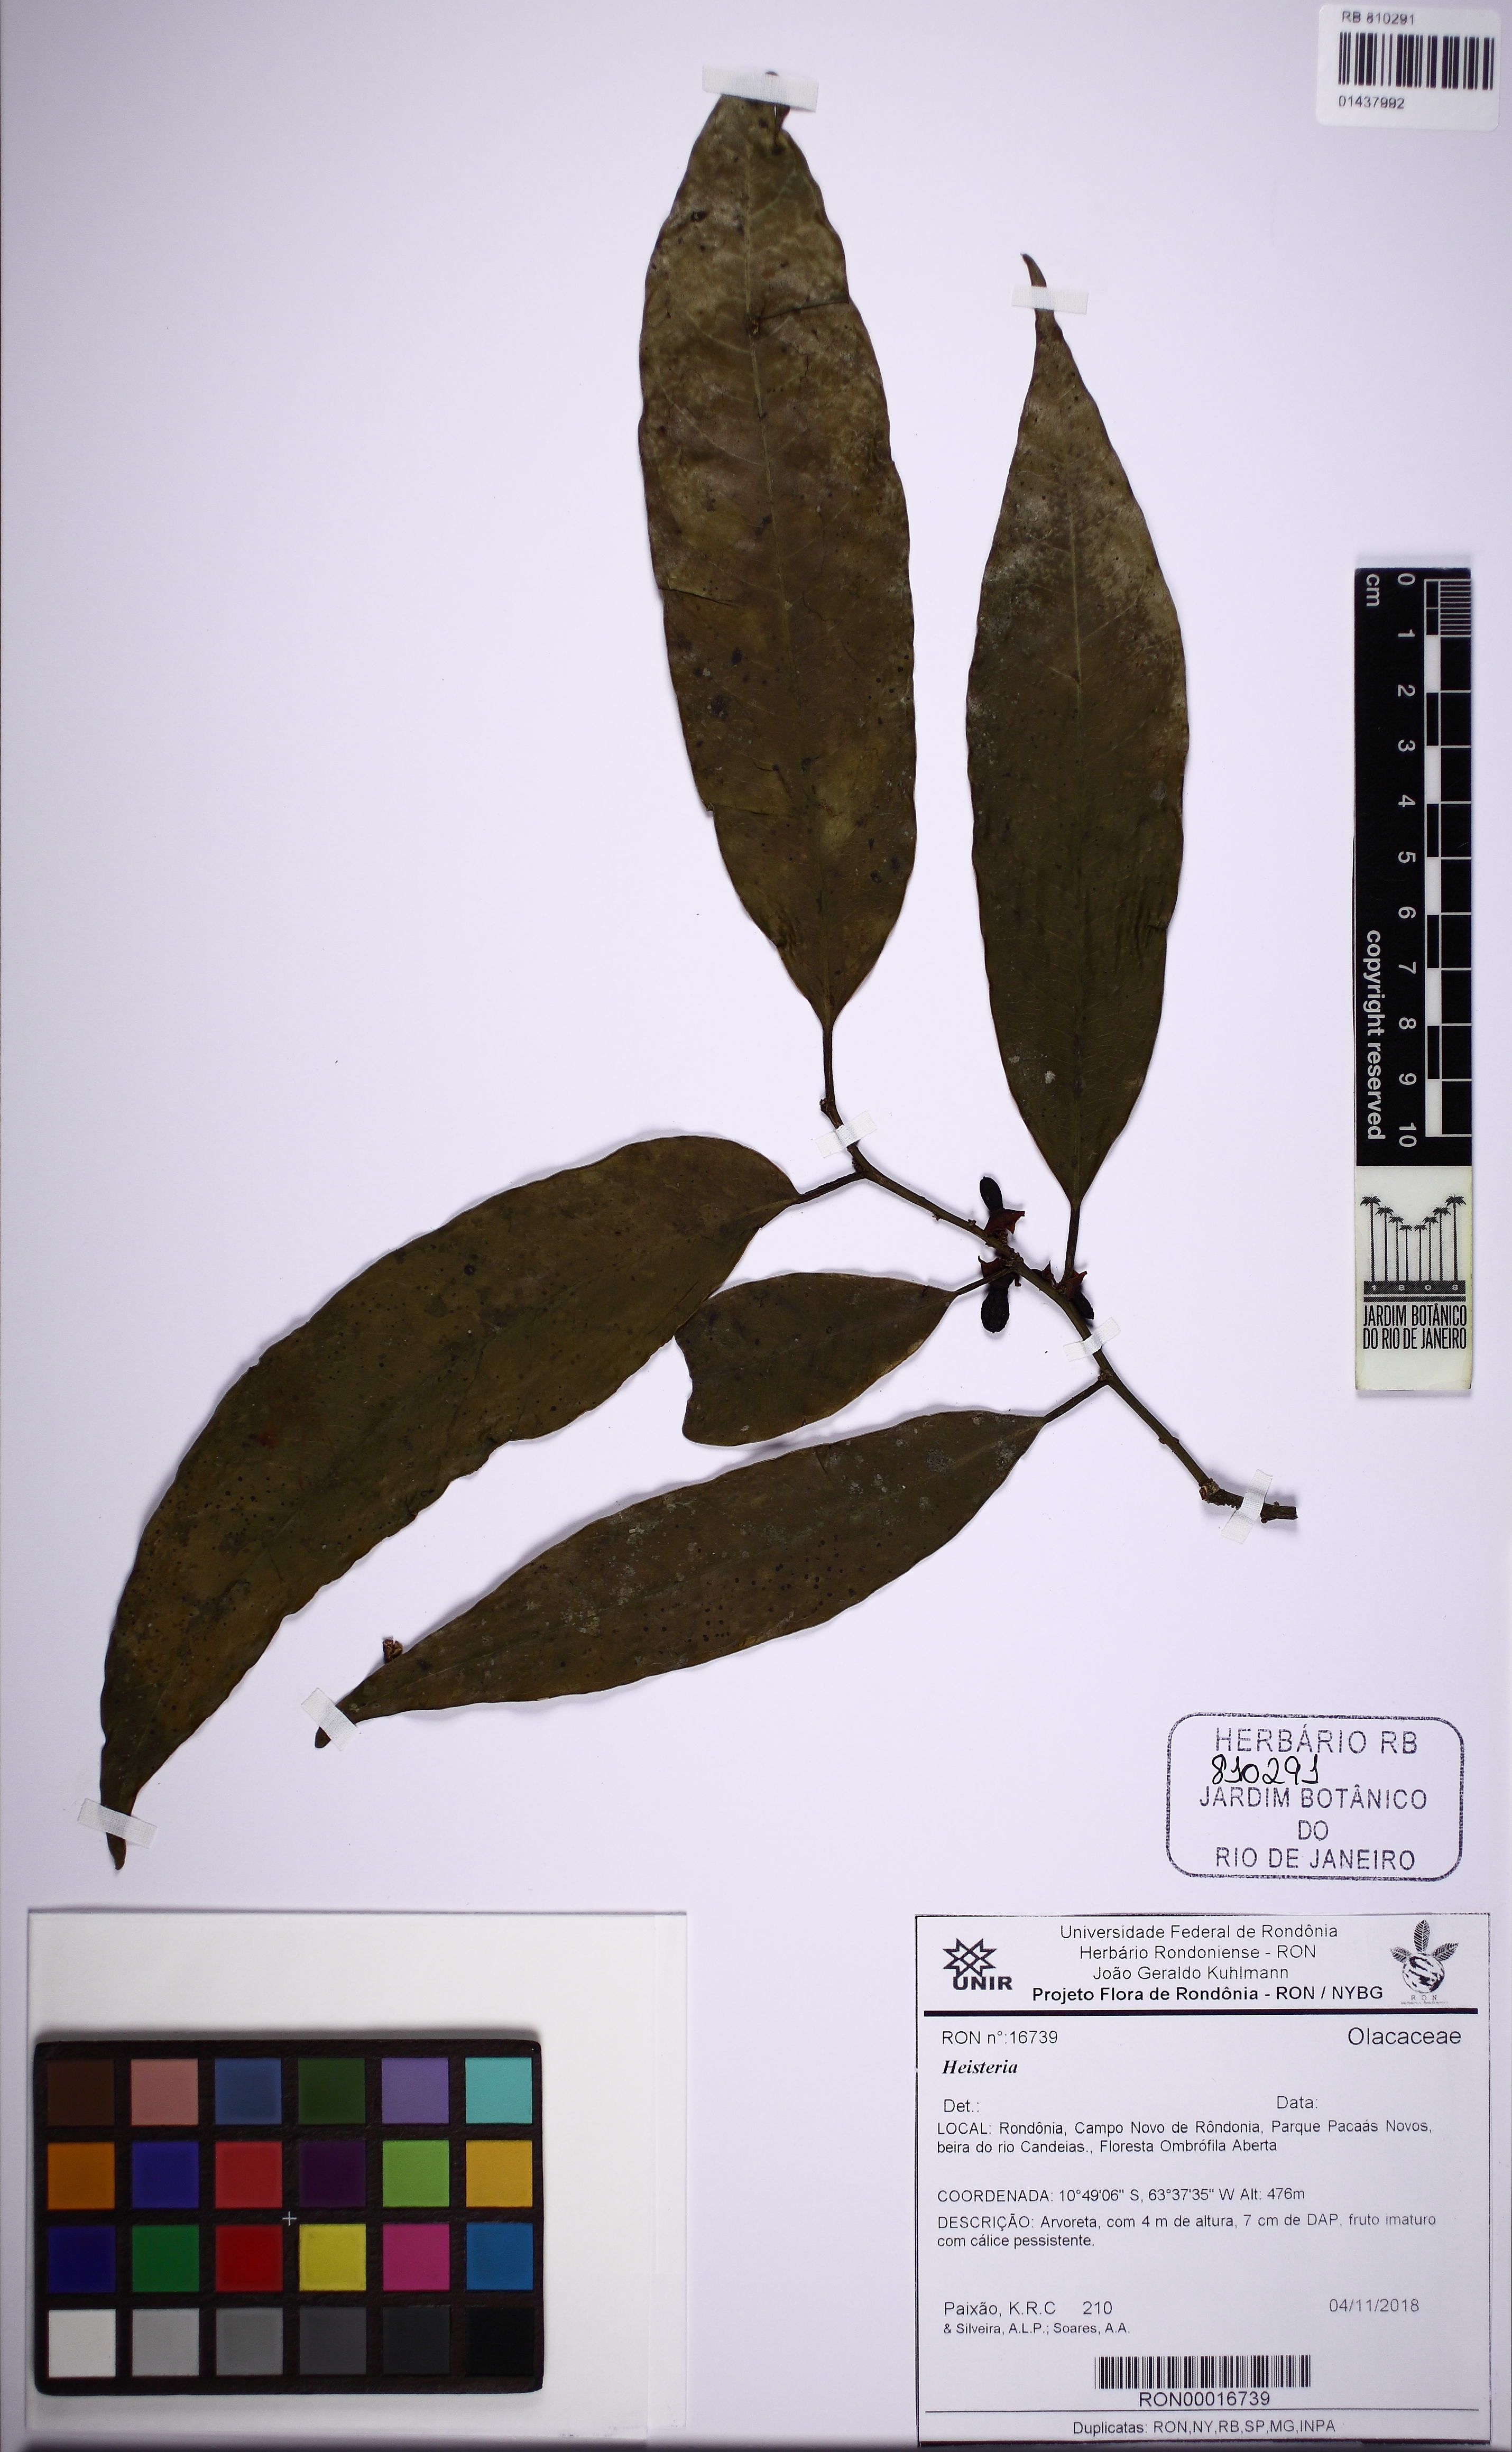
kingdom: Plantae
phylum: Tracheophyta
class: Magnoliopsida
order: Santalales
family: Erythropalaceae
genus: Heisteria
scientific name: Heisteria
